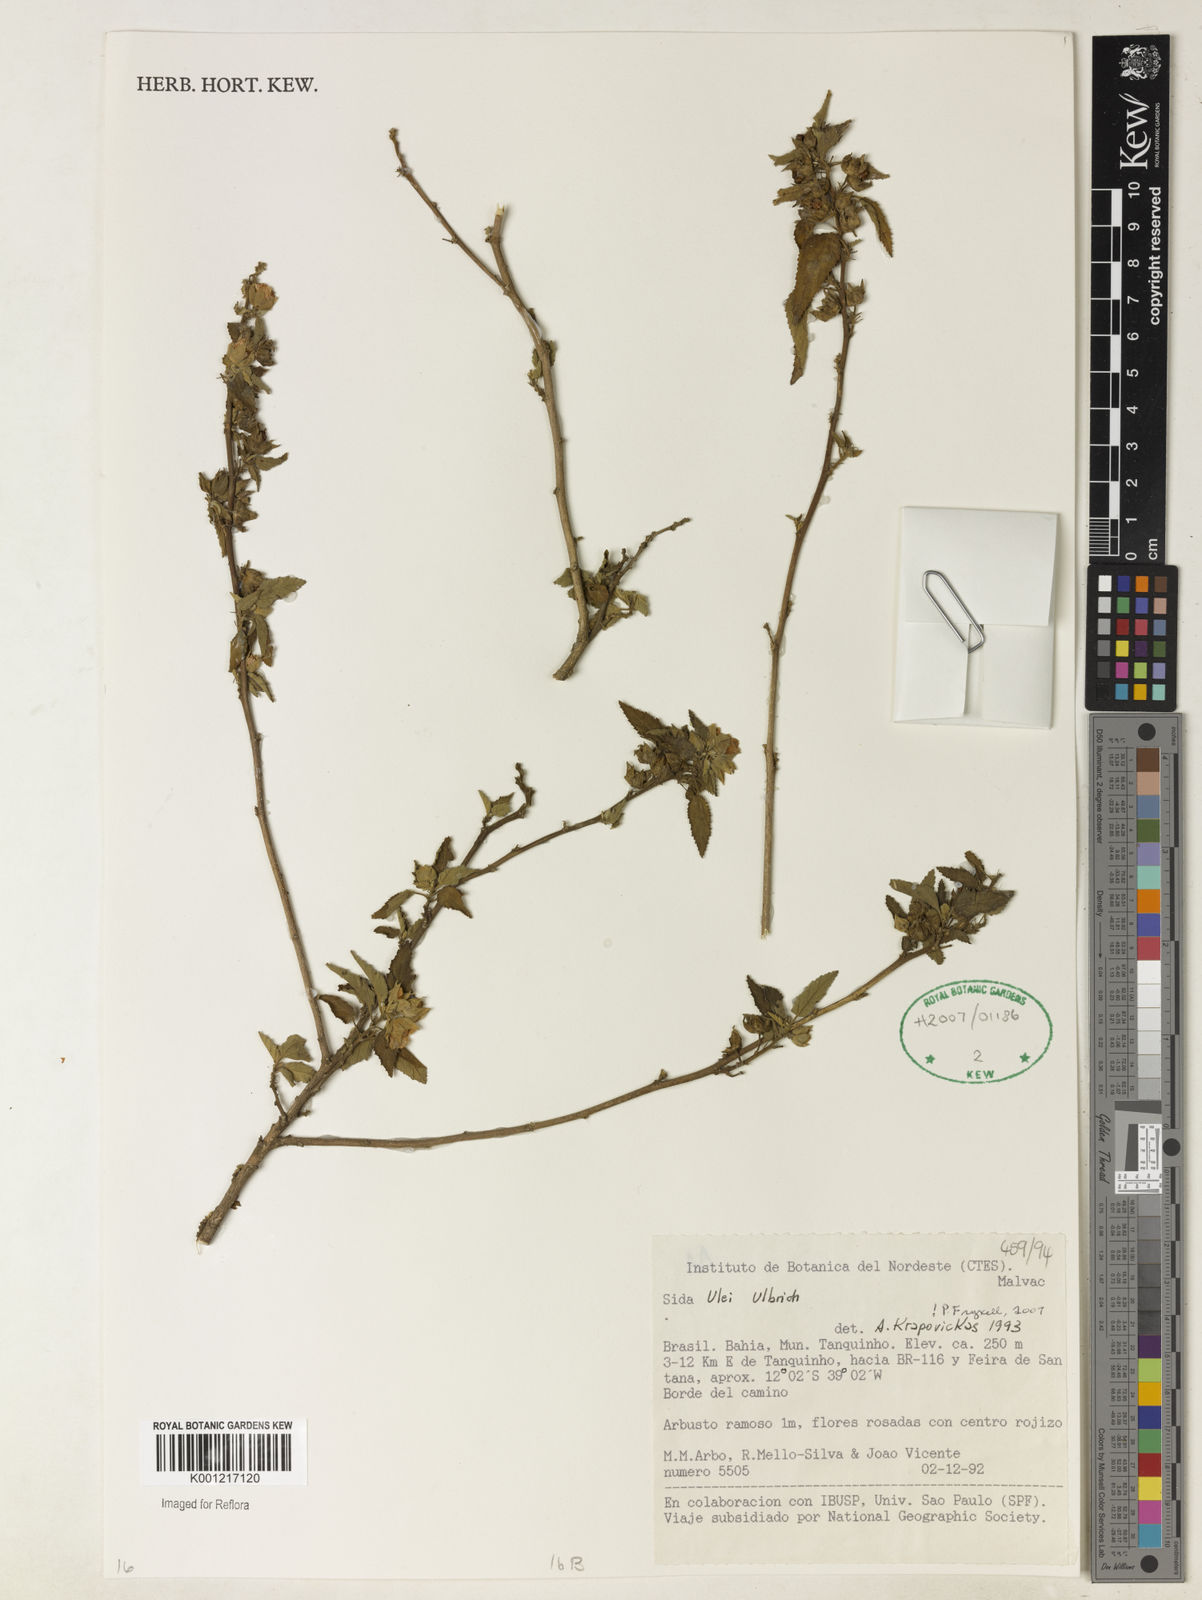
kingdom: Plantae
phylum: Tracheophyta
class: Magnoliopsida
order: Malvales
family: Malvaceae
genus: Sida
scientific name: Sida ulei
